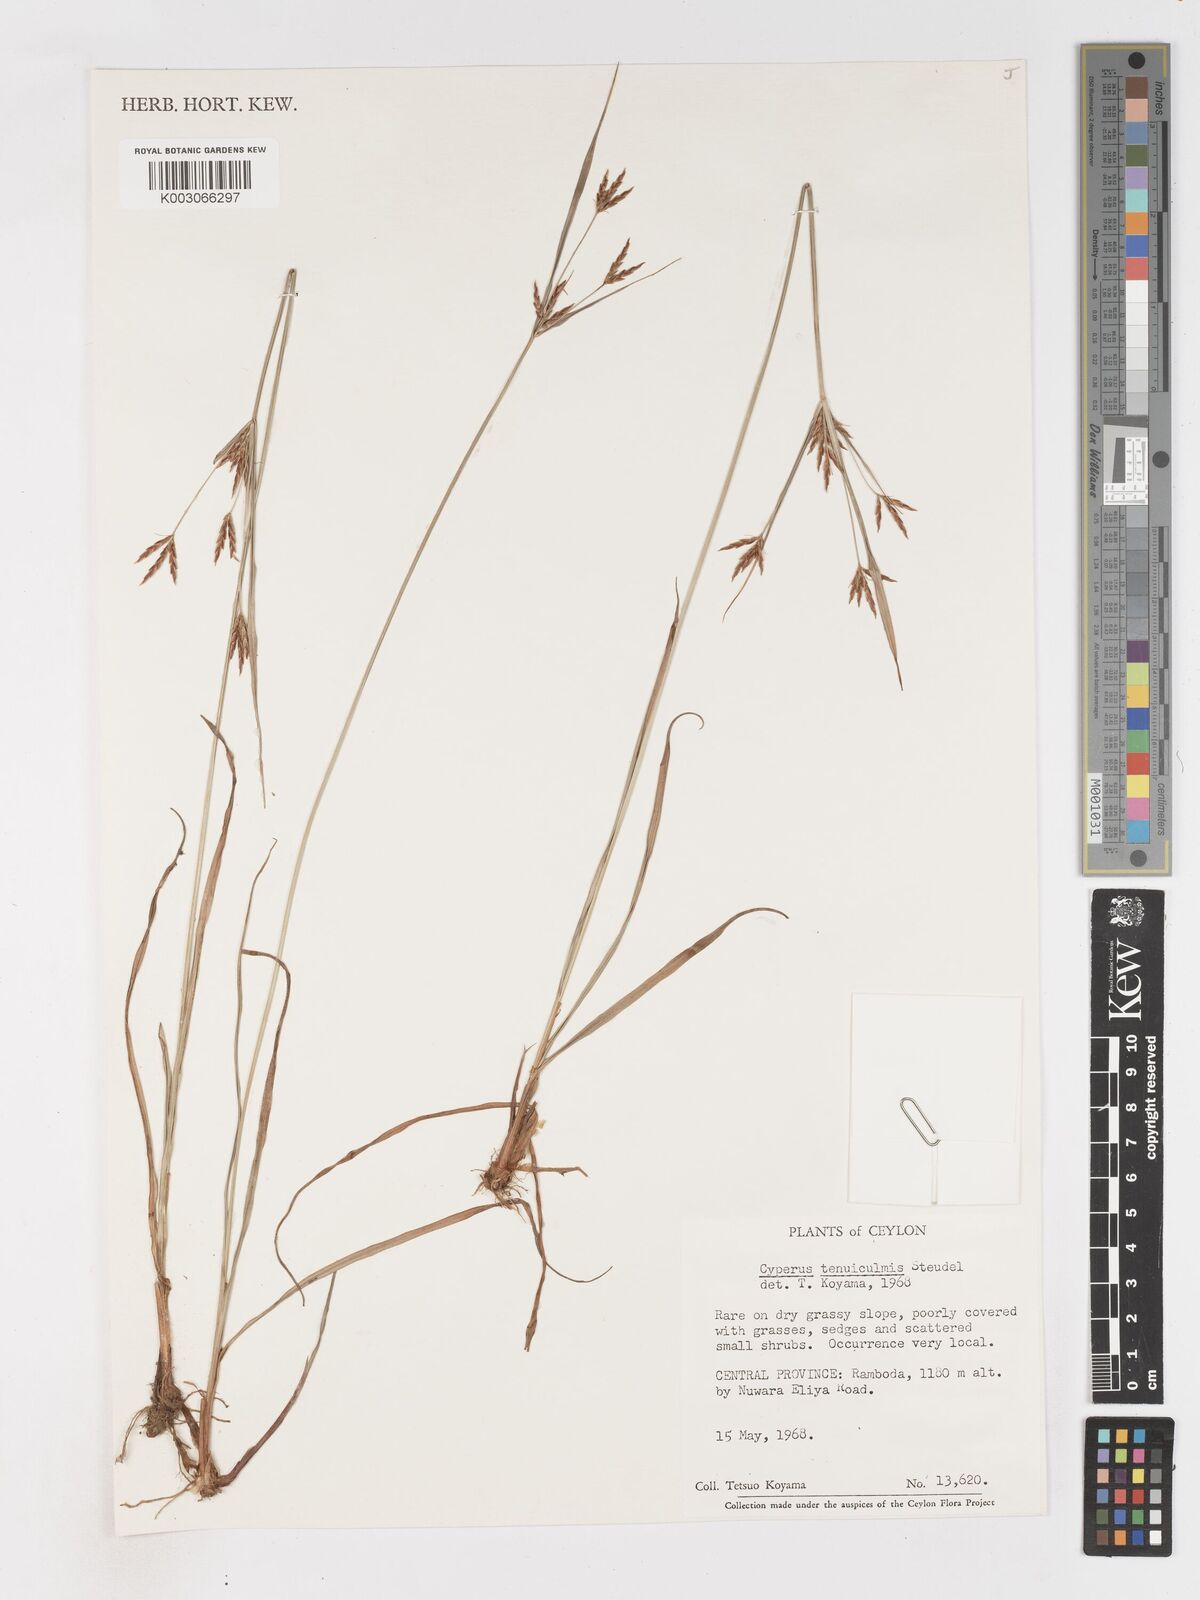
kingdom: Plantae
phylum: Tracheophyta
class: Liliopsida
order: Poales
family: Cyperaceae
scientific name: Cyperaceae
